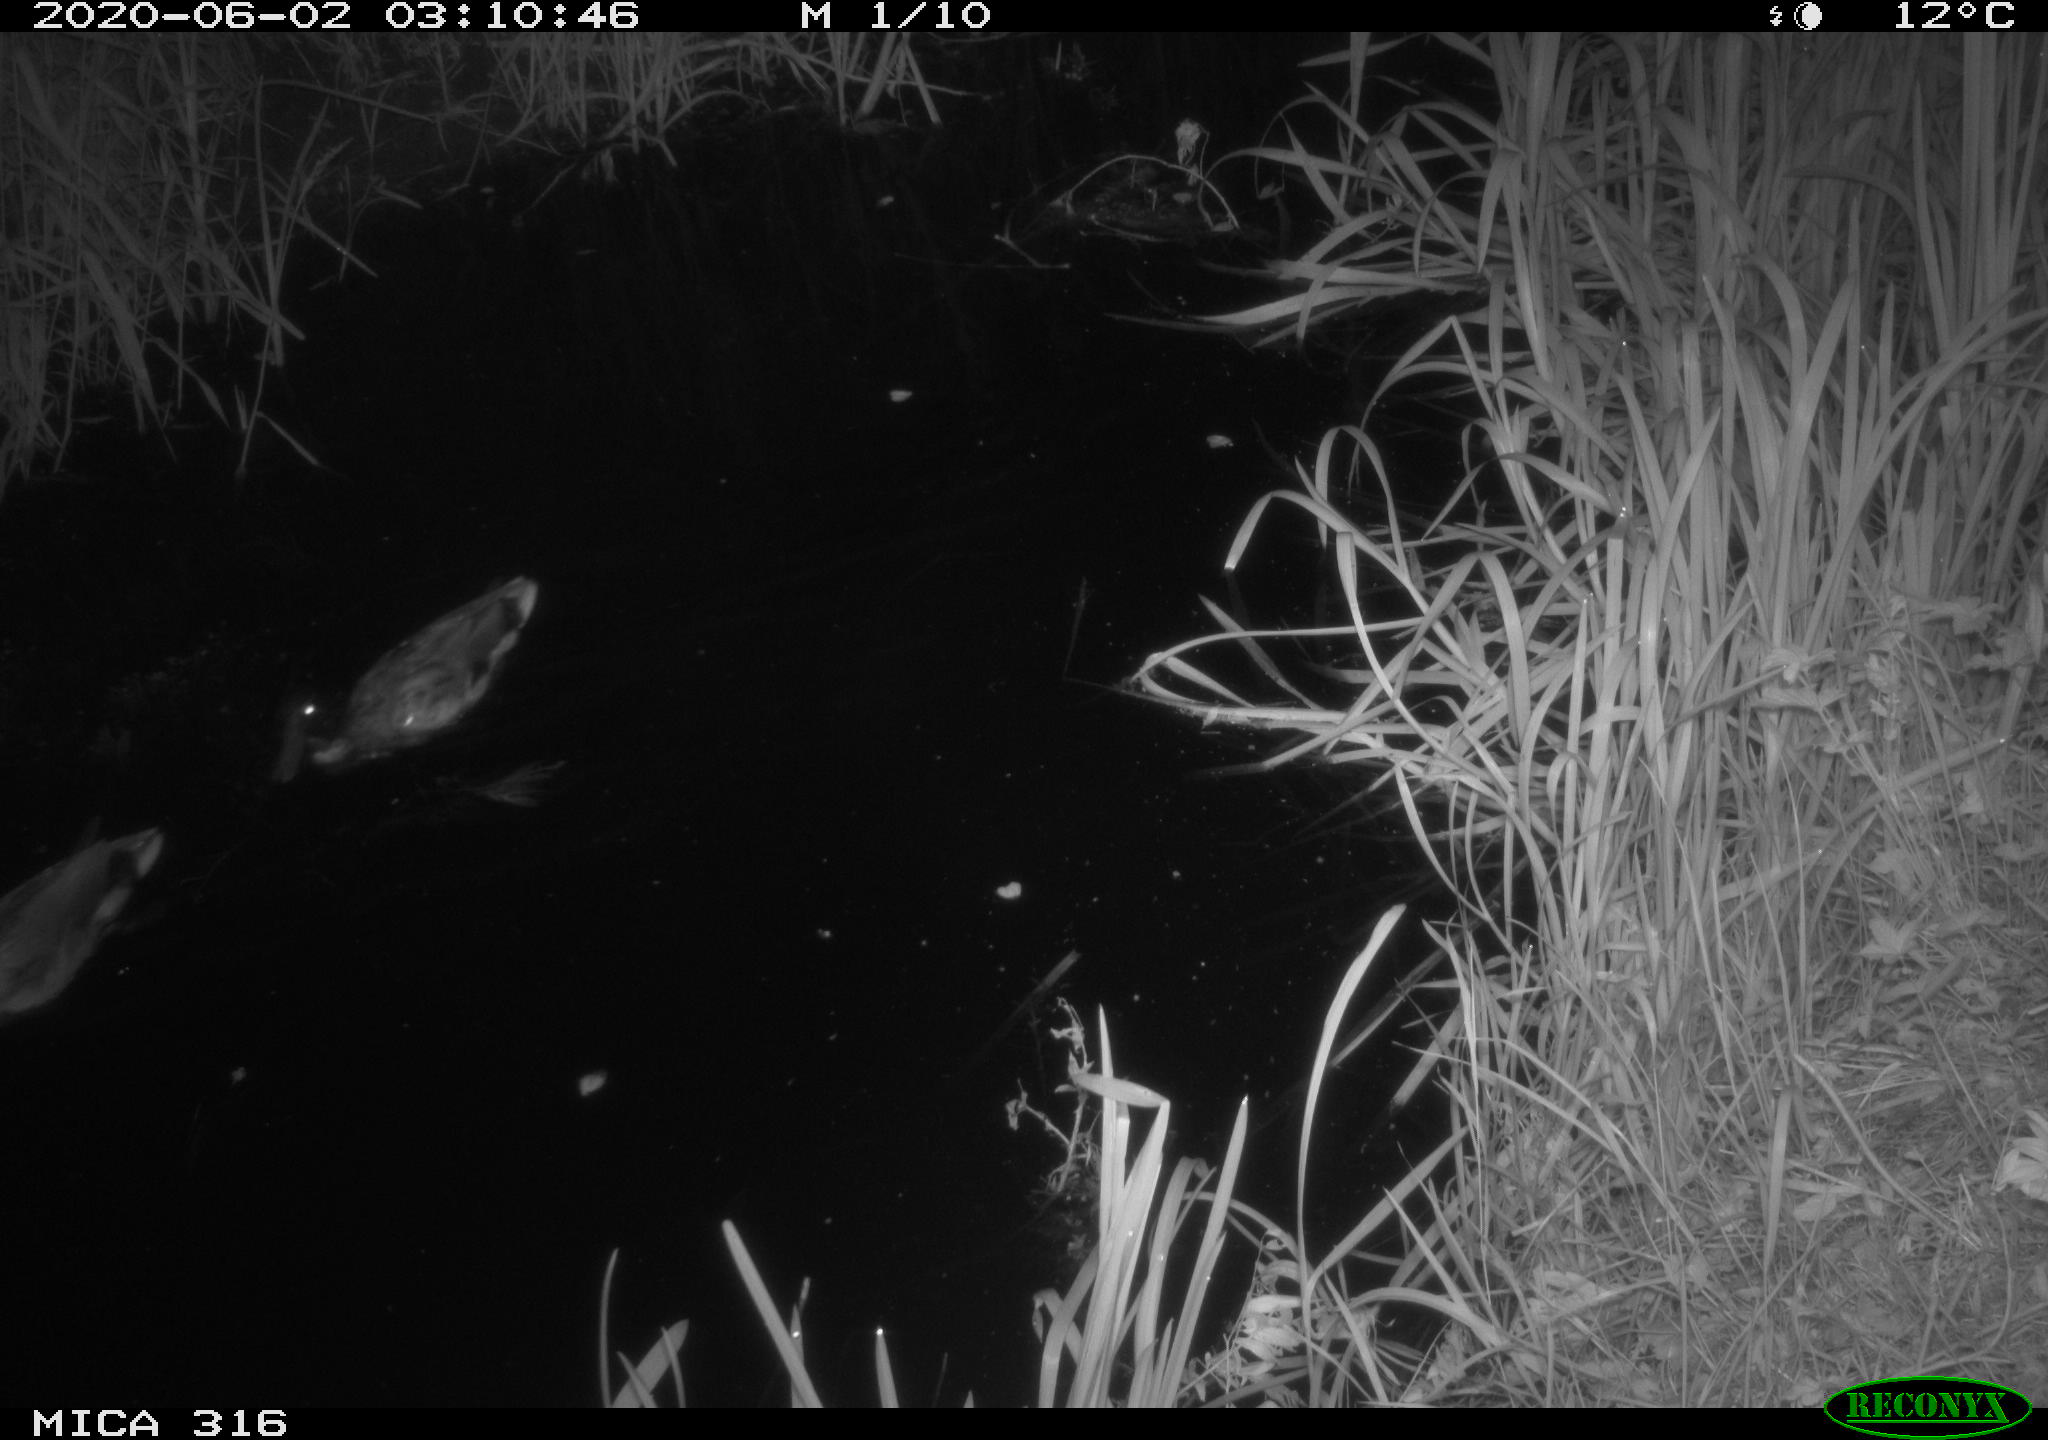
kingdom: Animalia
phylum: Chordata
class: Aves
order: Anseriformes
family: Anatidae
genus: Anas
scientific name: Anas platyrhynchos
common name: Mallard
